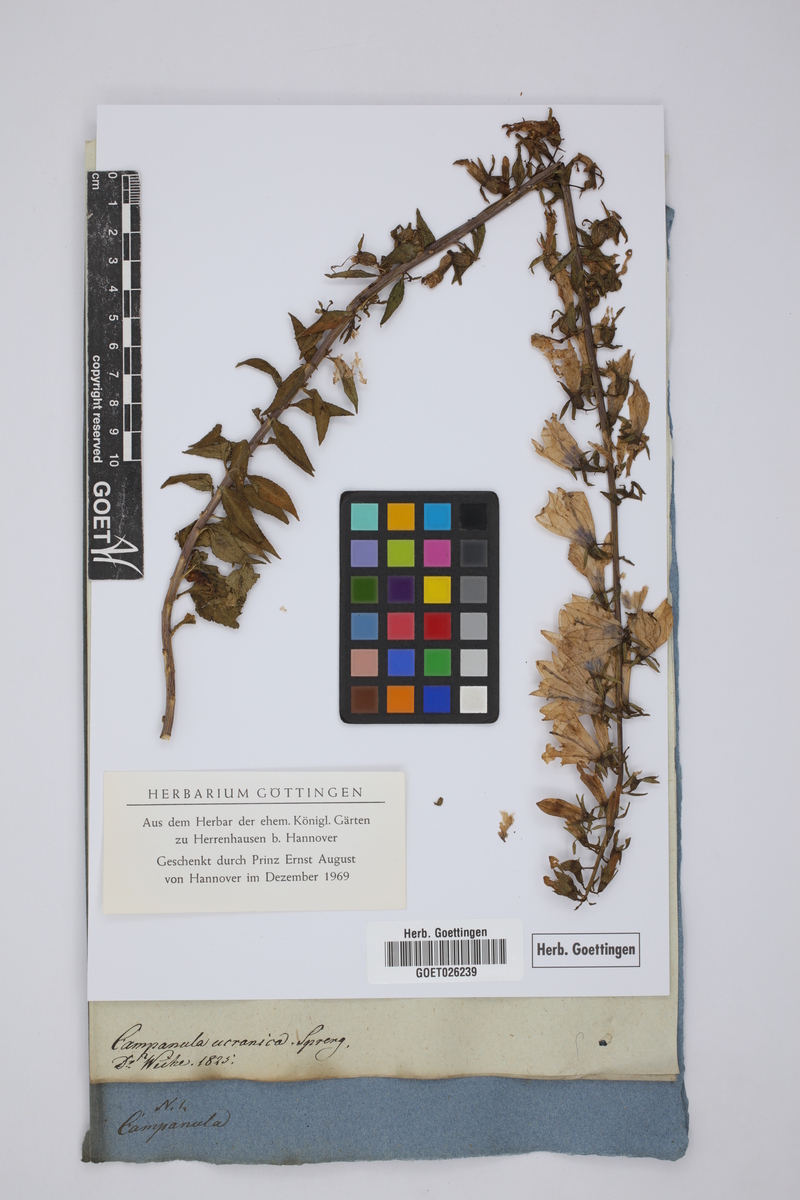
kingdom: Plantae
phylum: Tracheophyta
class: Magnoliopsida
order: Asterales
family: Campanulaceae
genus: Campanula
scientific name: Campanula rapunculoides
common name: Creeping bellflower
